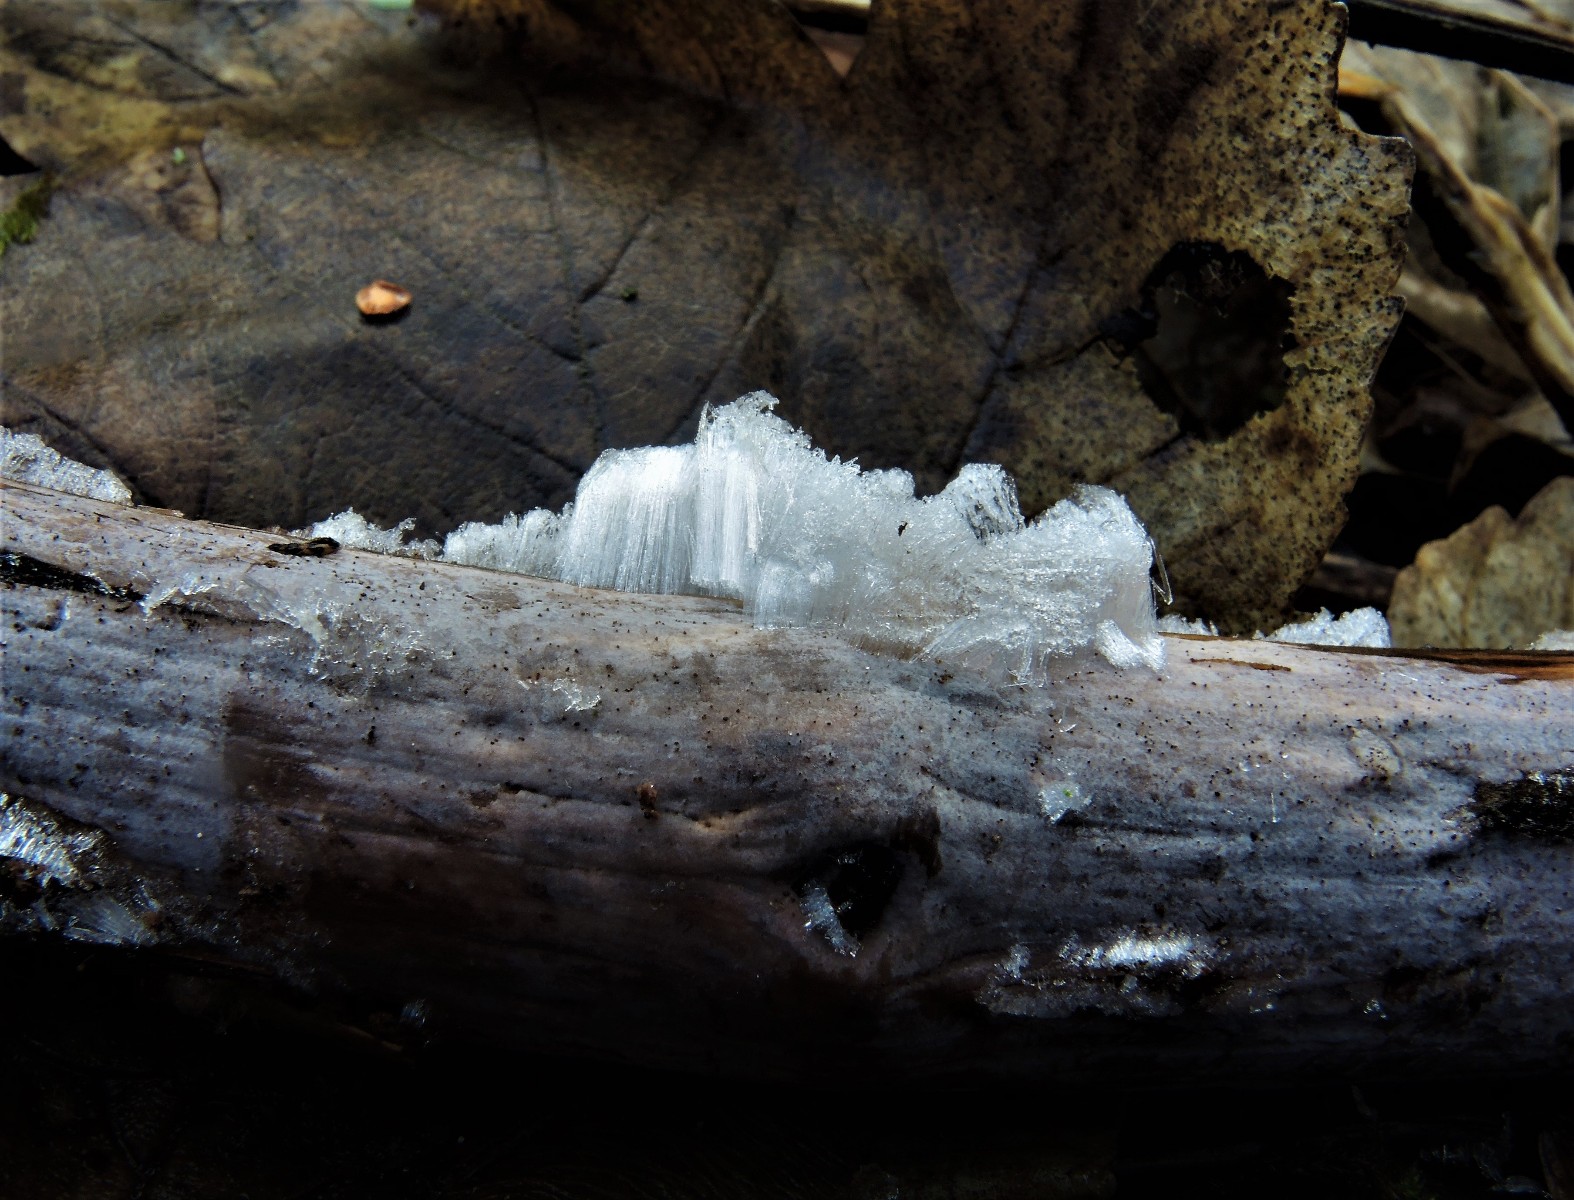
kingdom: Fungi
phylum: Basidiomycota
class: Tremellomycetes
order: Tremellales
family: Exidiaceae
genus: Exidiopsis
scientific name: Exidiopsis effusa
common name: smuk bævrehinde
